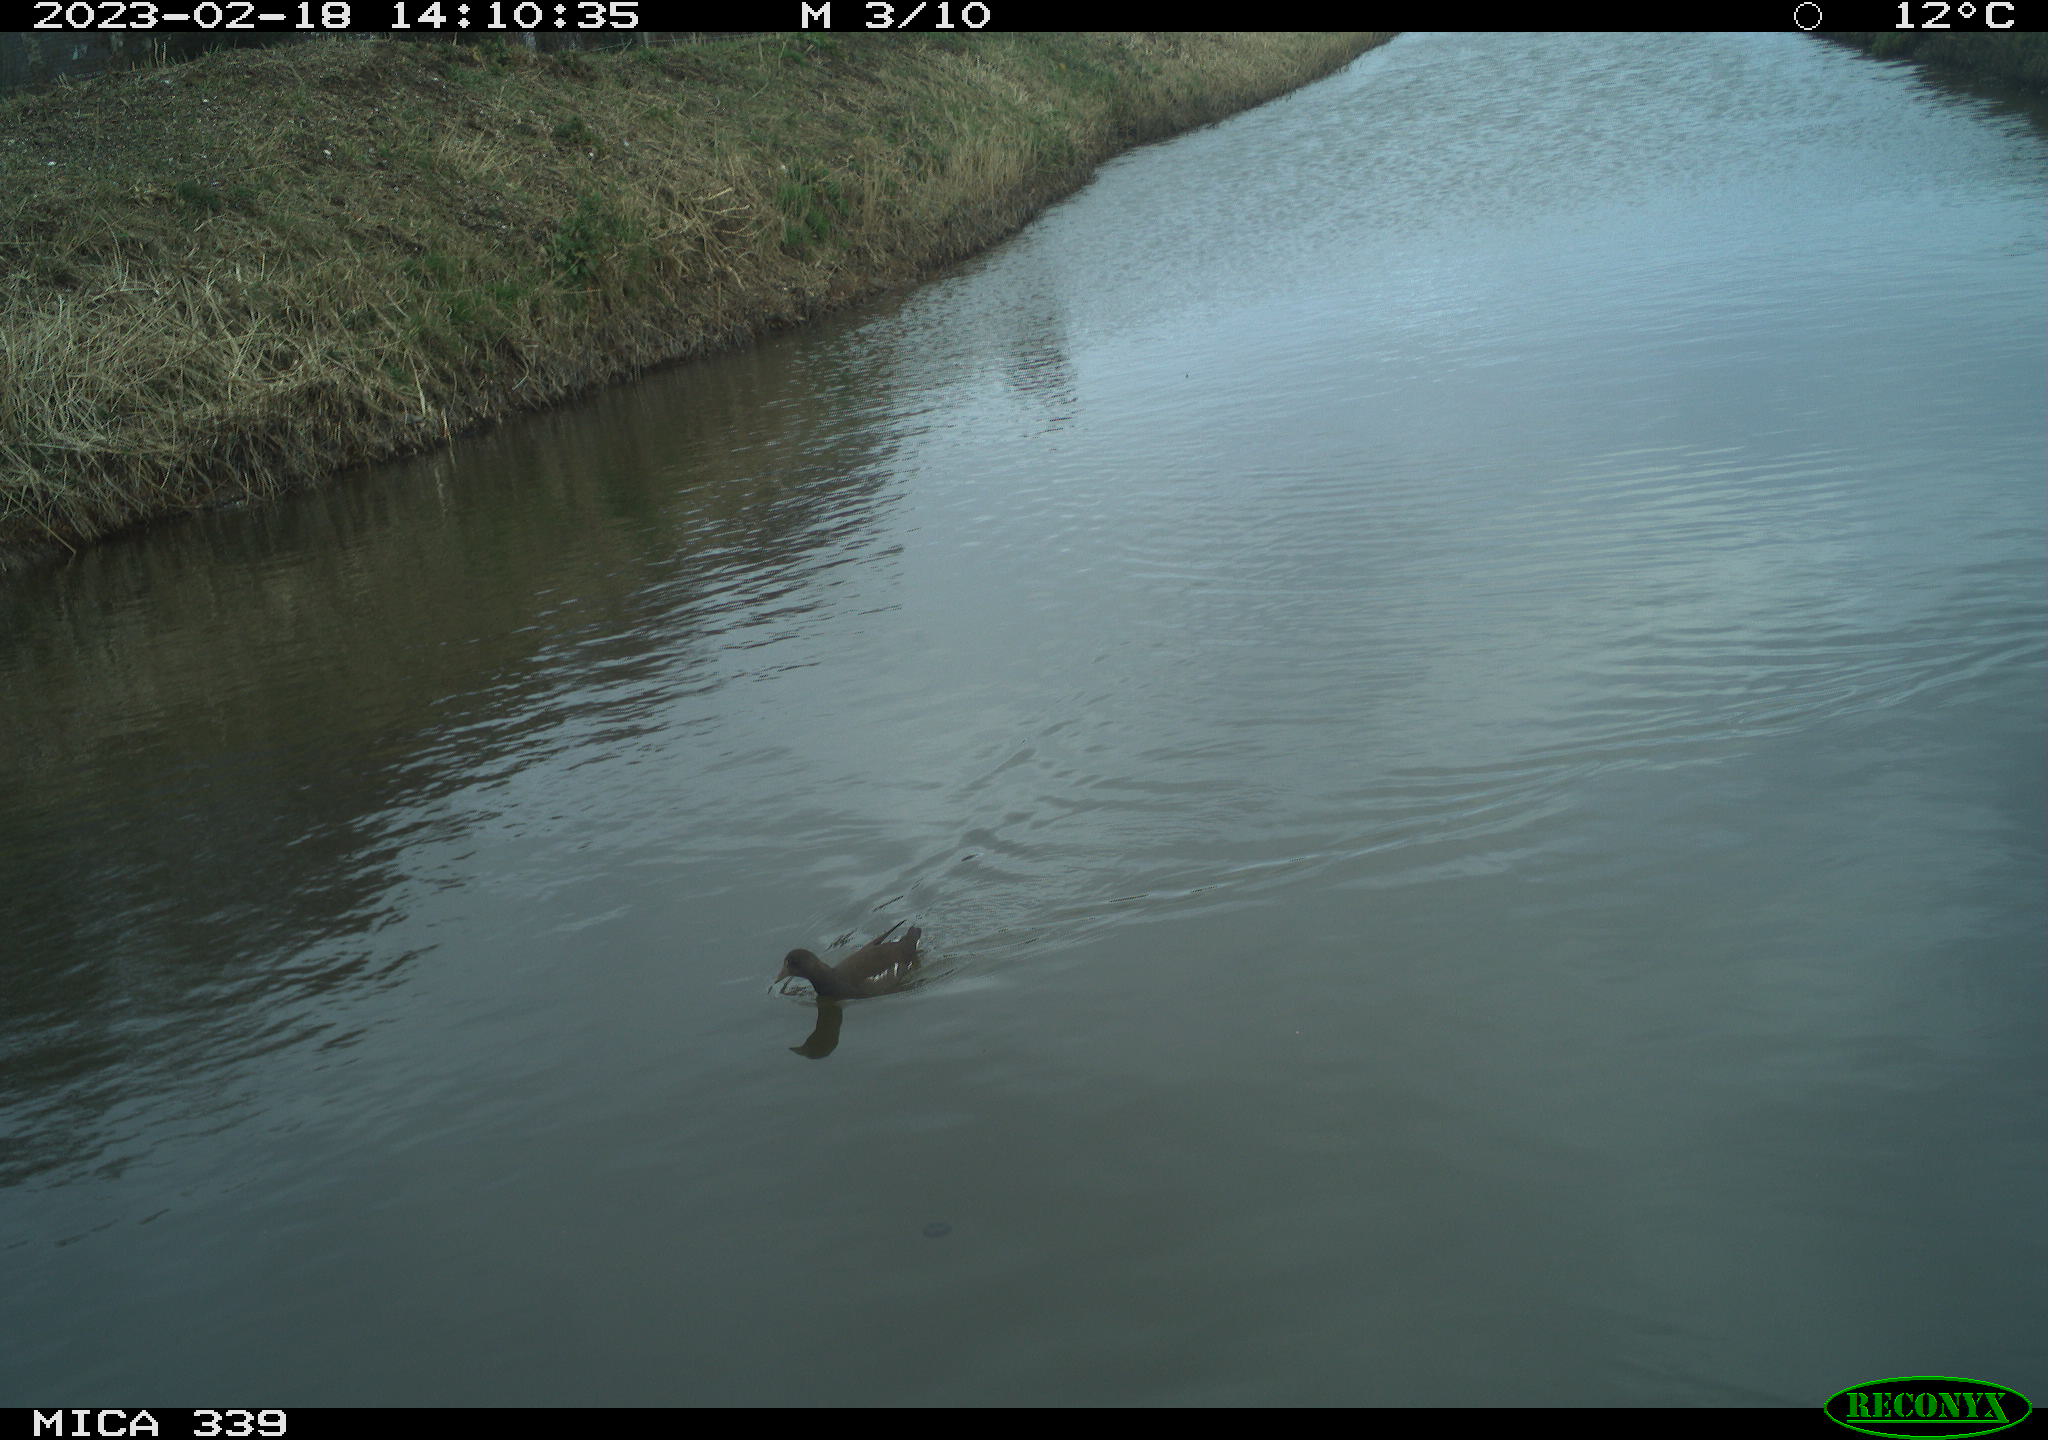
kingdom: Animalia
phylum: Chordata
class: Aves
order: Gruiformes
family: Rallidae
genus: Gallinula
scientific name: Gallinula chloropus
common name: Common moorhen
